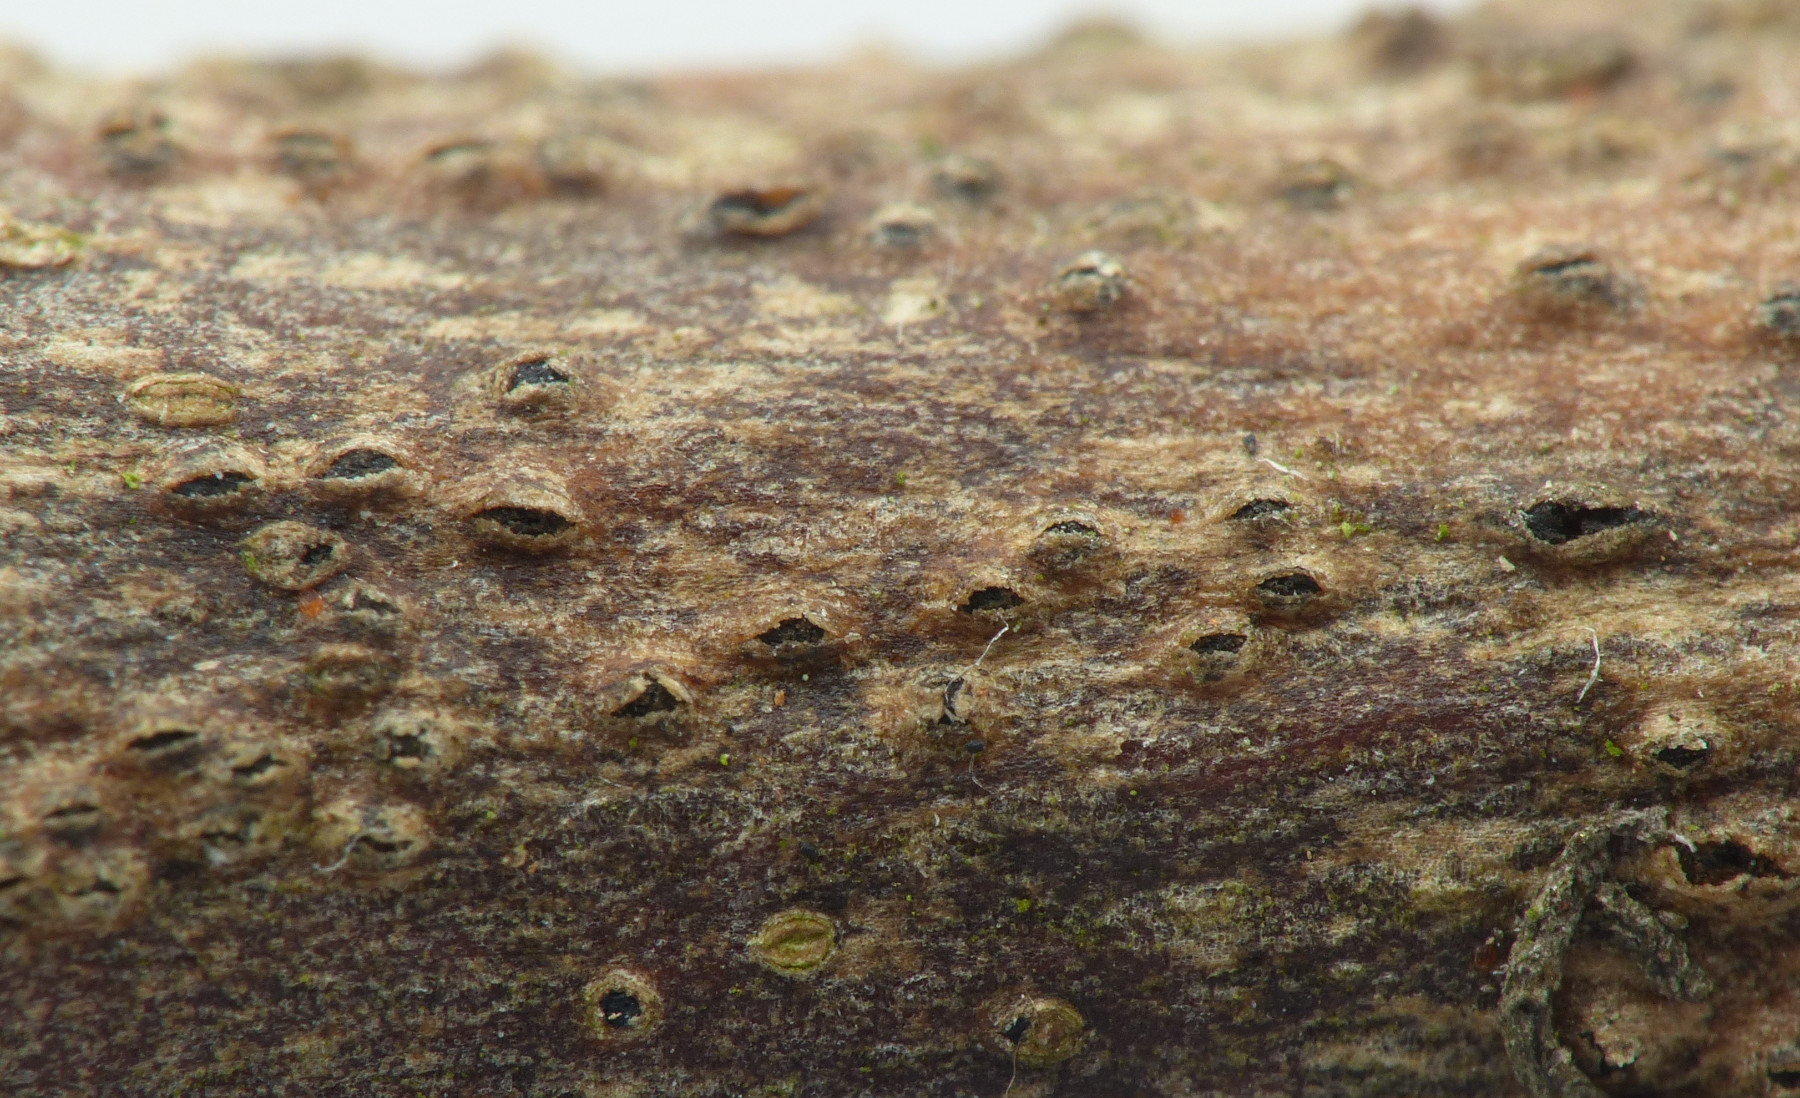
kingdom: Fungi
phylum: Ascomycota
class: Dothideomycetes
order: Botryosphaeriales
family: Botryosphaeriaceae
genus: Botryosphaeria
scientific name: Botryosphaeria stevensii
